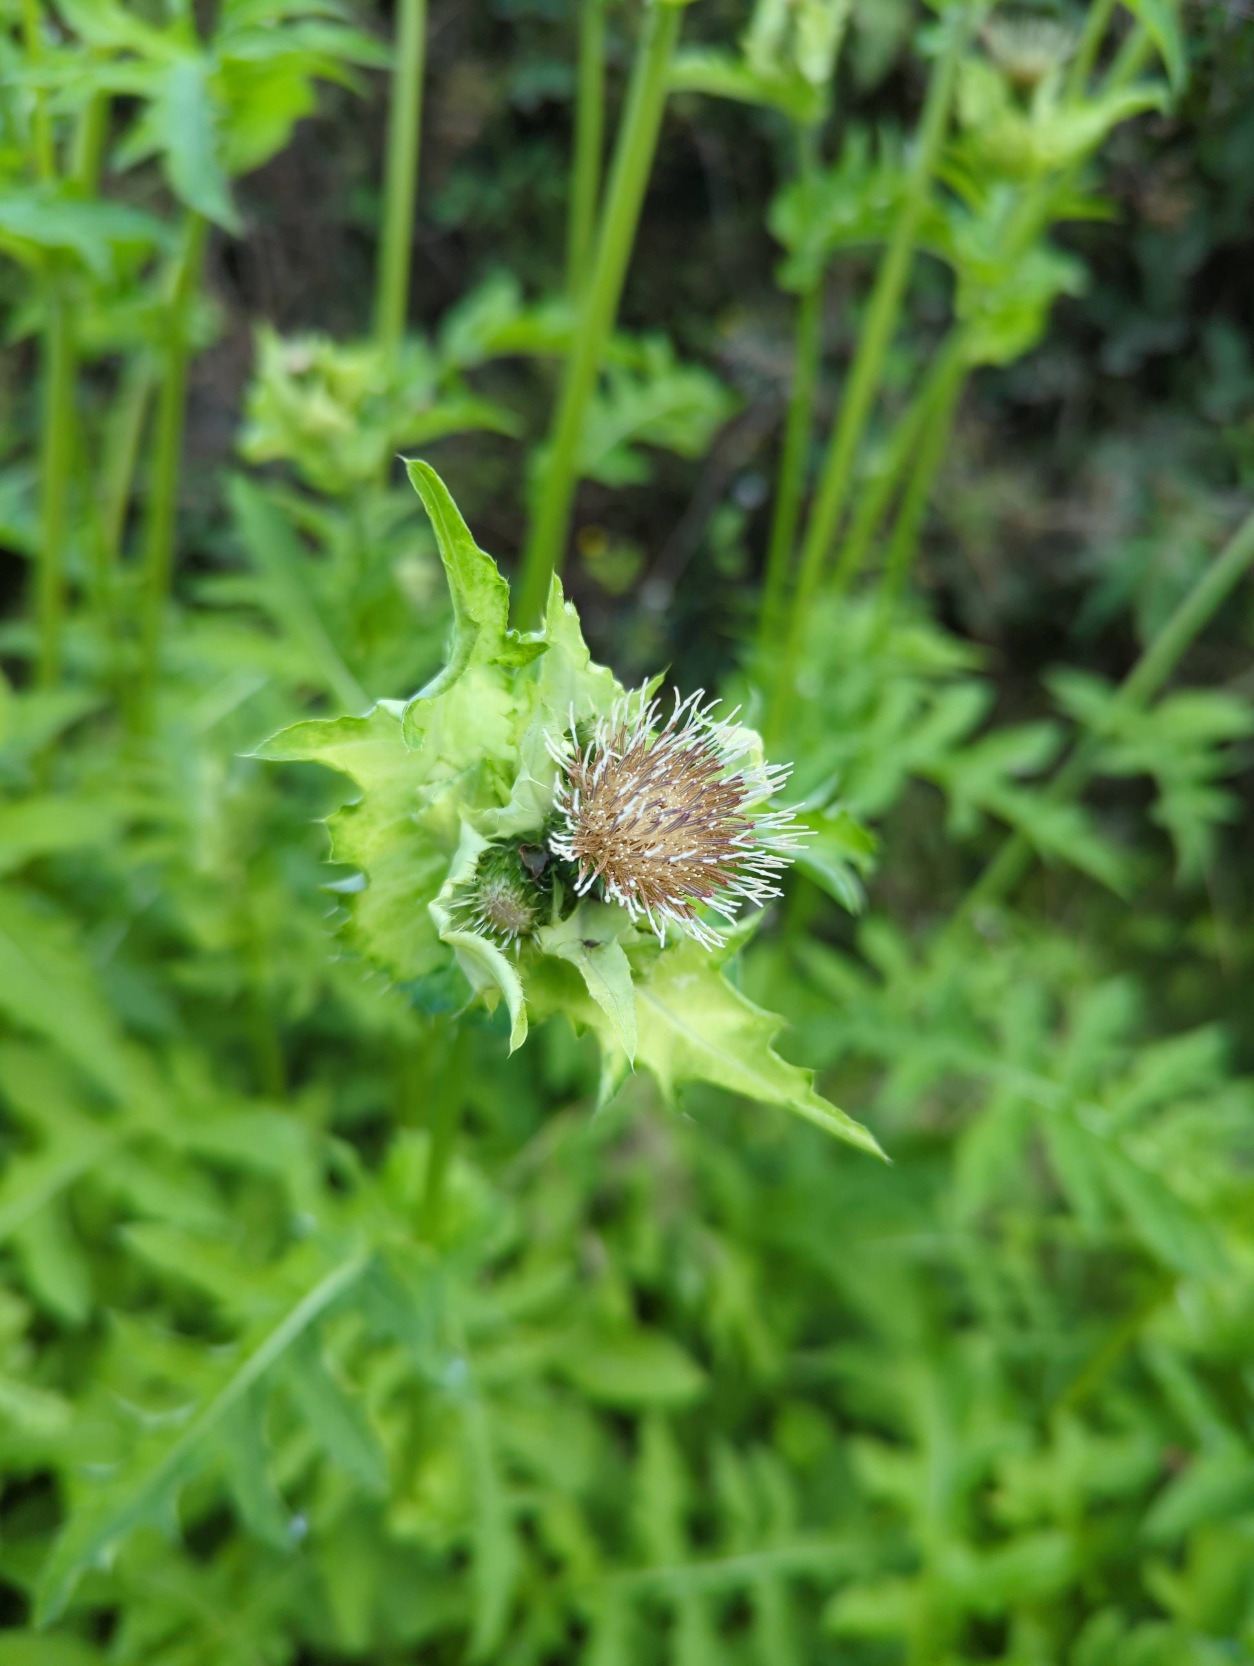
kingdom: Plantae
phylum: Tracheophyta
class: Magnoliopsida
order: Asterales
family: Asteraceae
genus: Cirsium
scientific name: Cirsium oleraceum
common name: Kål-tidsel
